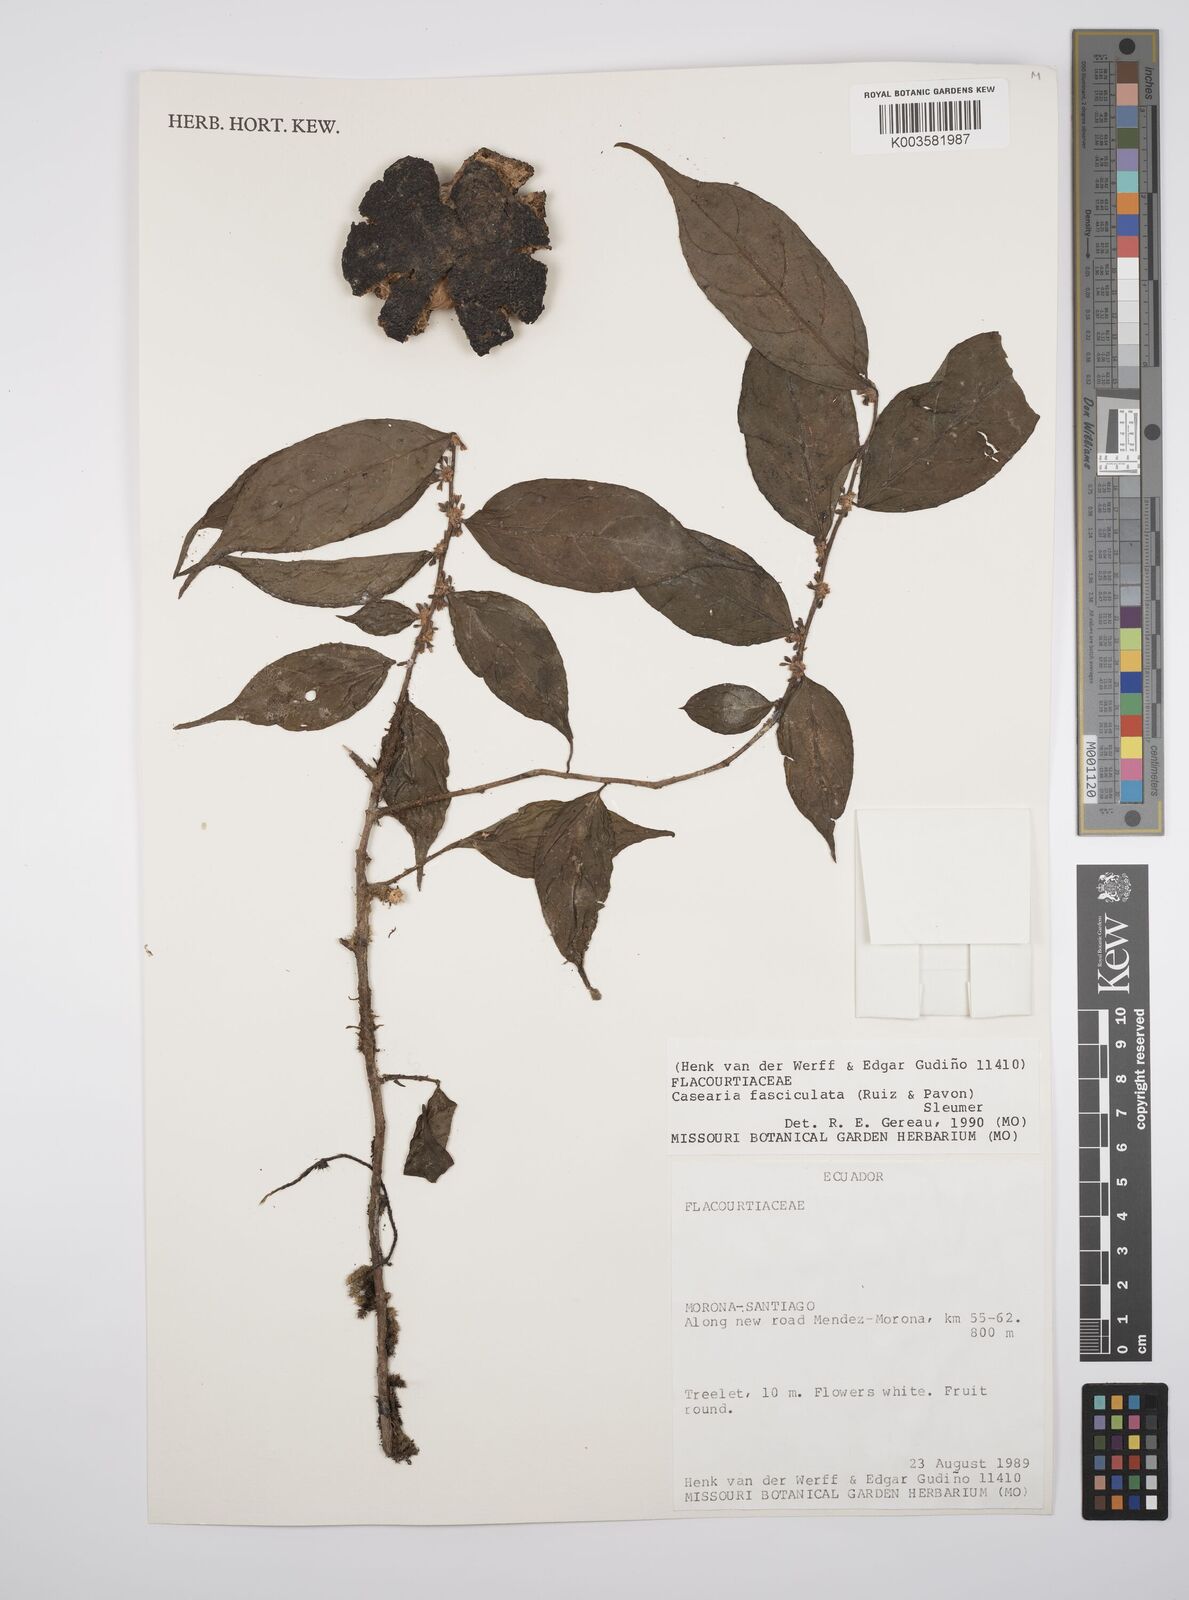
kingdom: Plantae
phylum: Tracheophyta
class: Magnoliopsida
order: Malpighiales
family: Salicaceae
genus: Casearia
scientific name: Casearia
